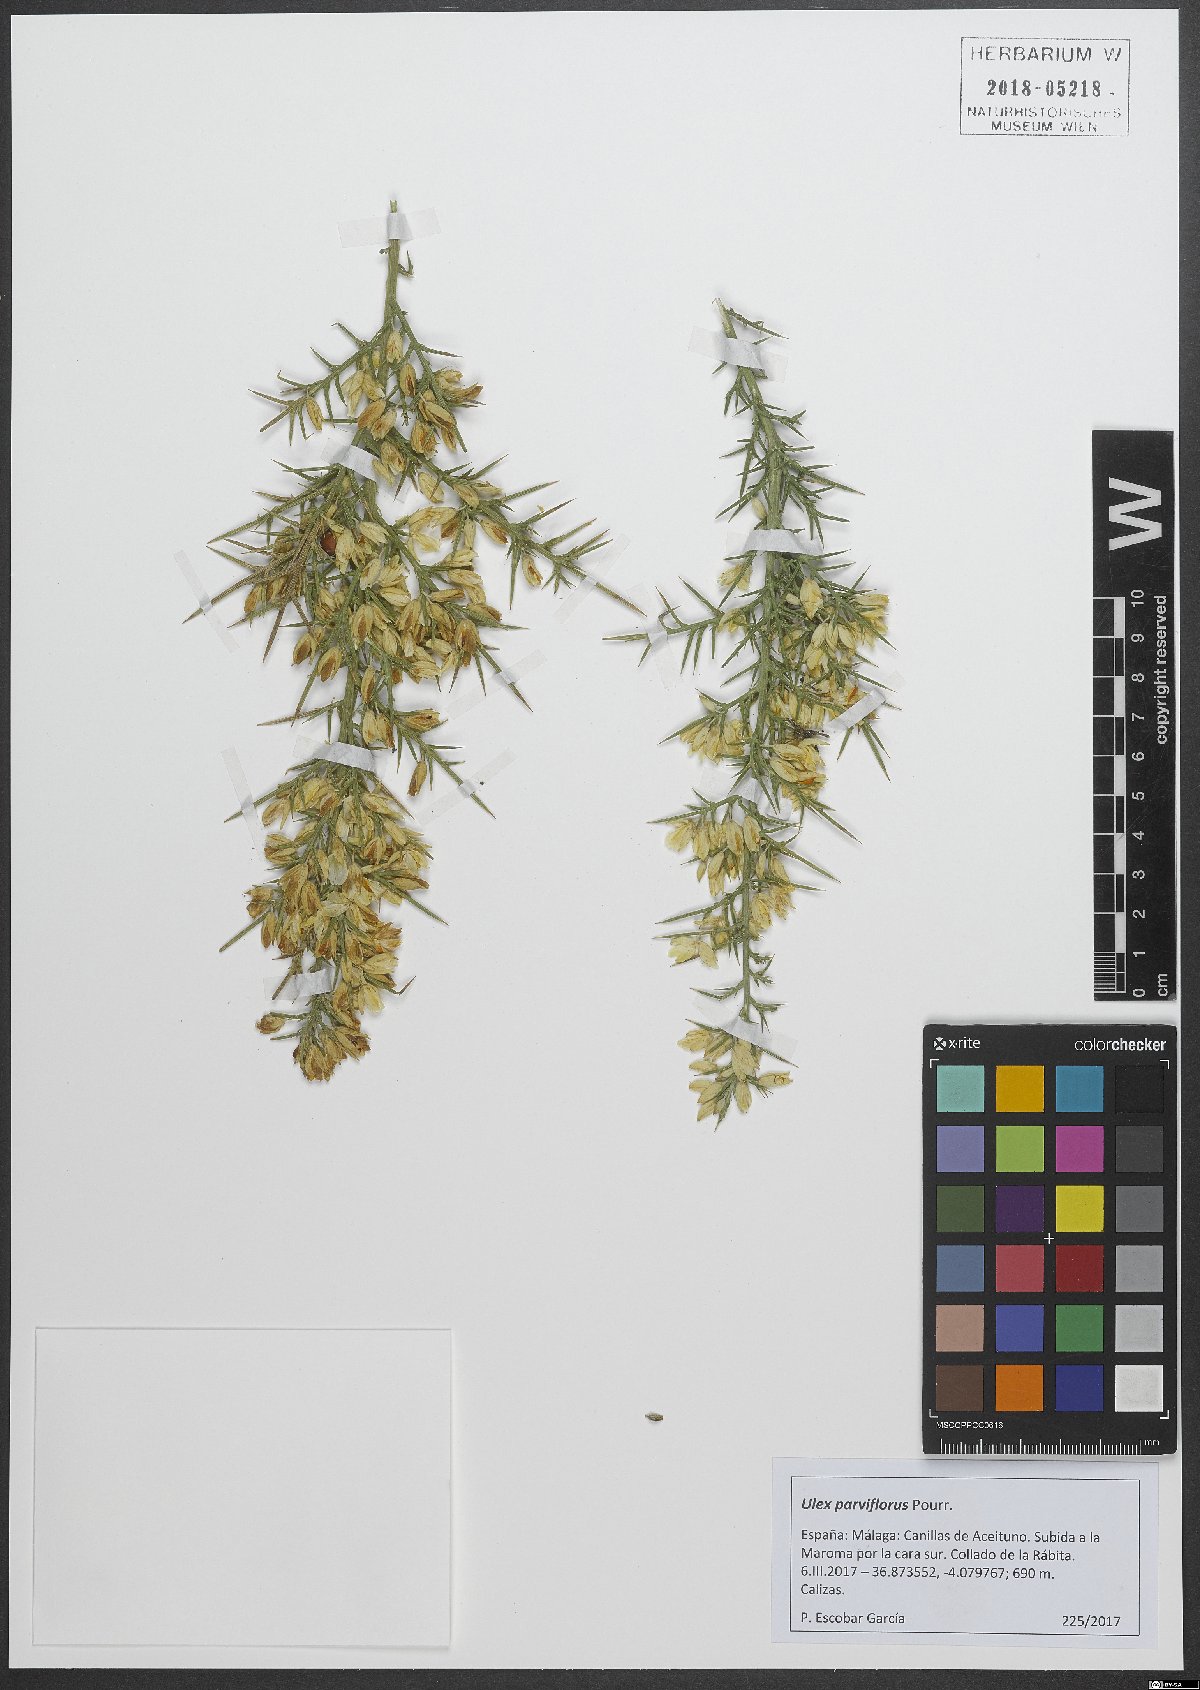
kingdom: Plantae
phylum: Tracheophyta
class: Magnoliopsida
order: Fabales
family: Fabaceae
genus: Ulex
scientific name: Ulex parviflorus
